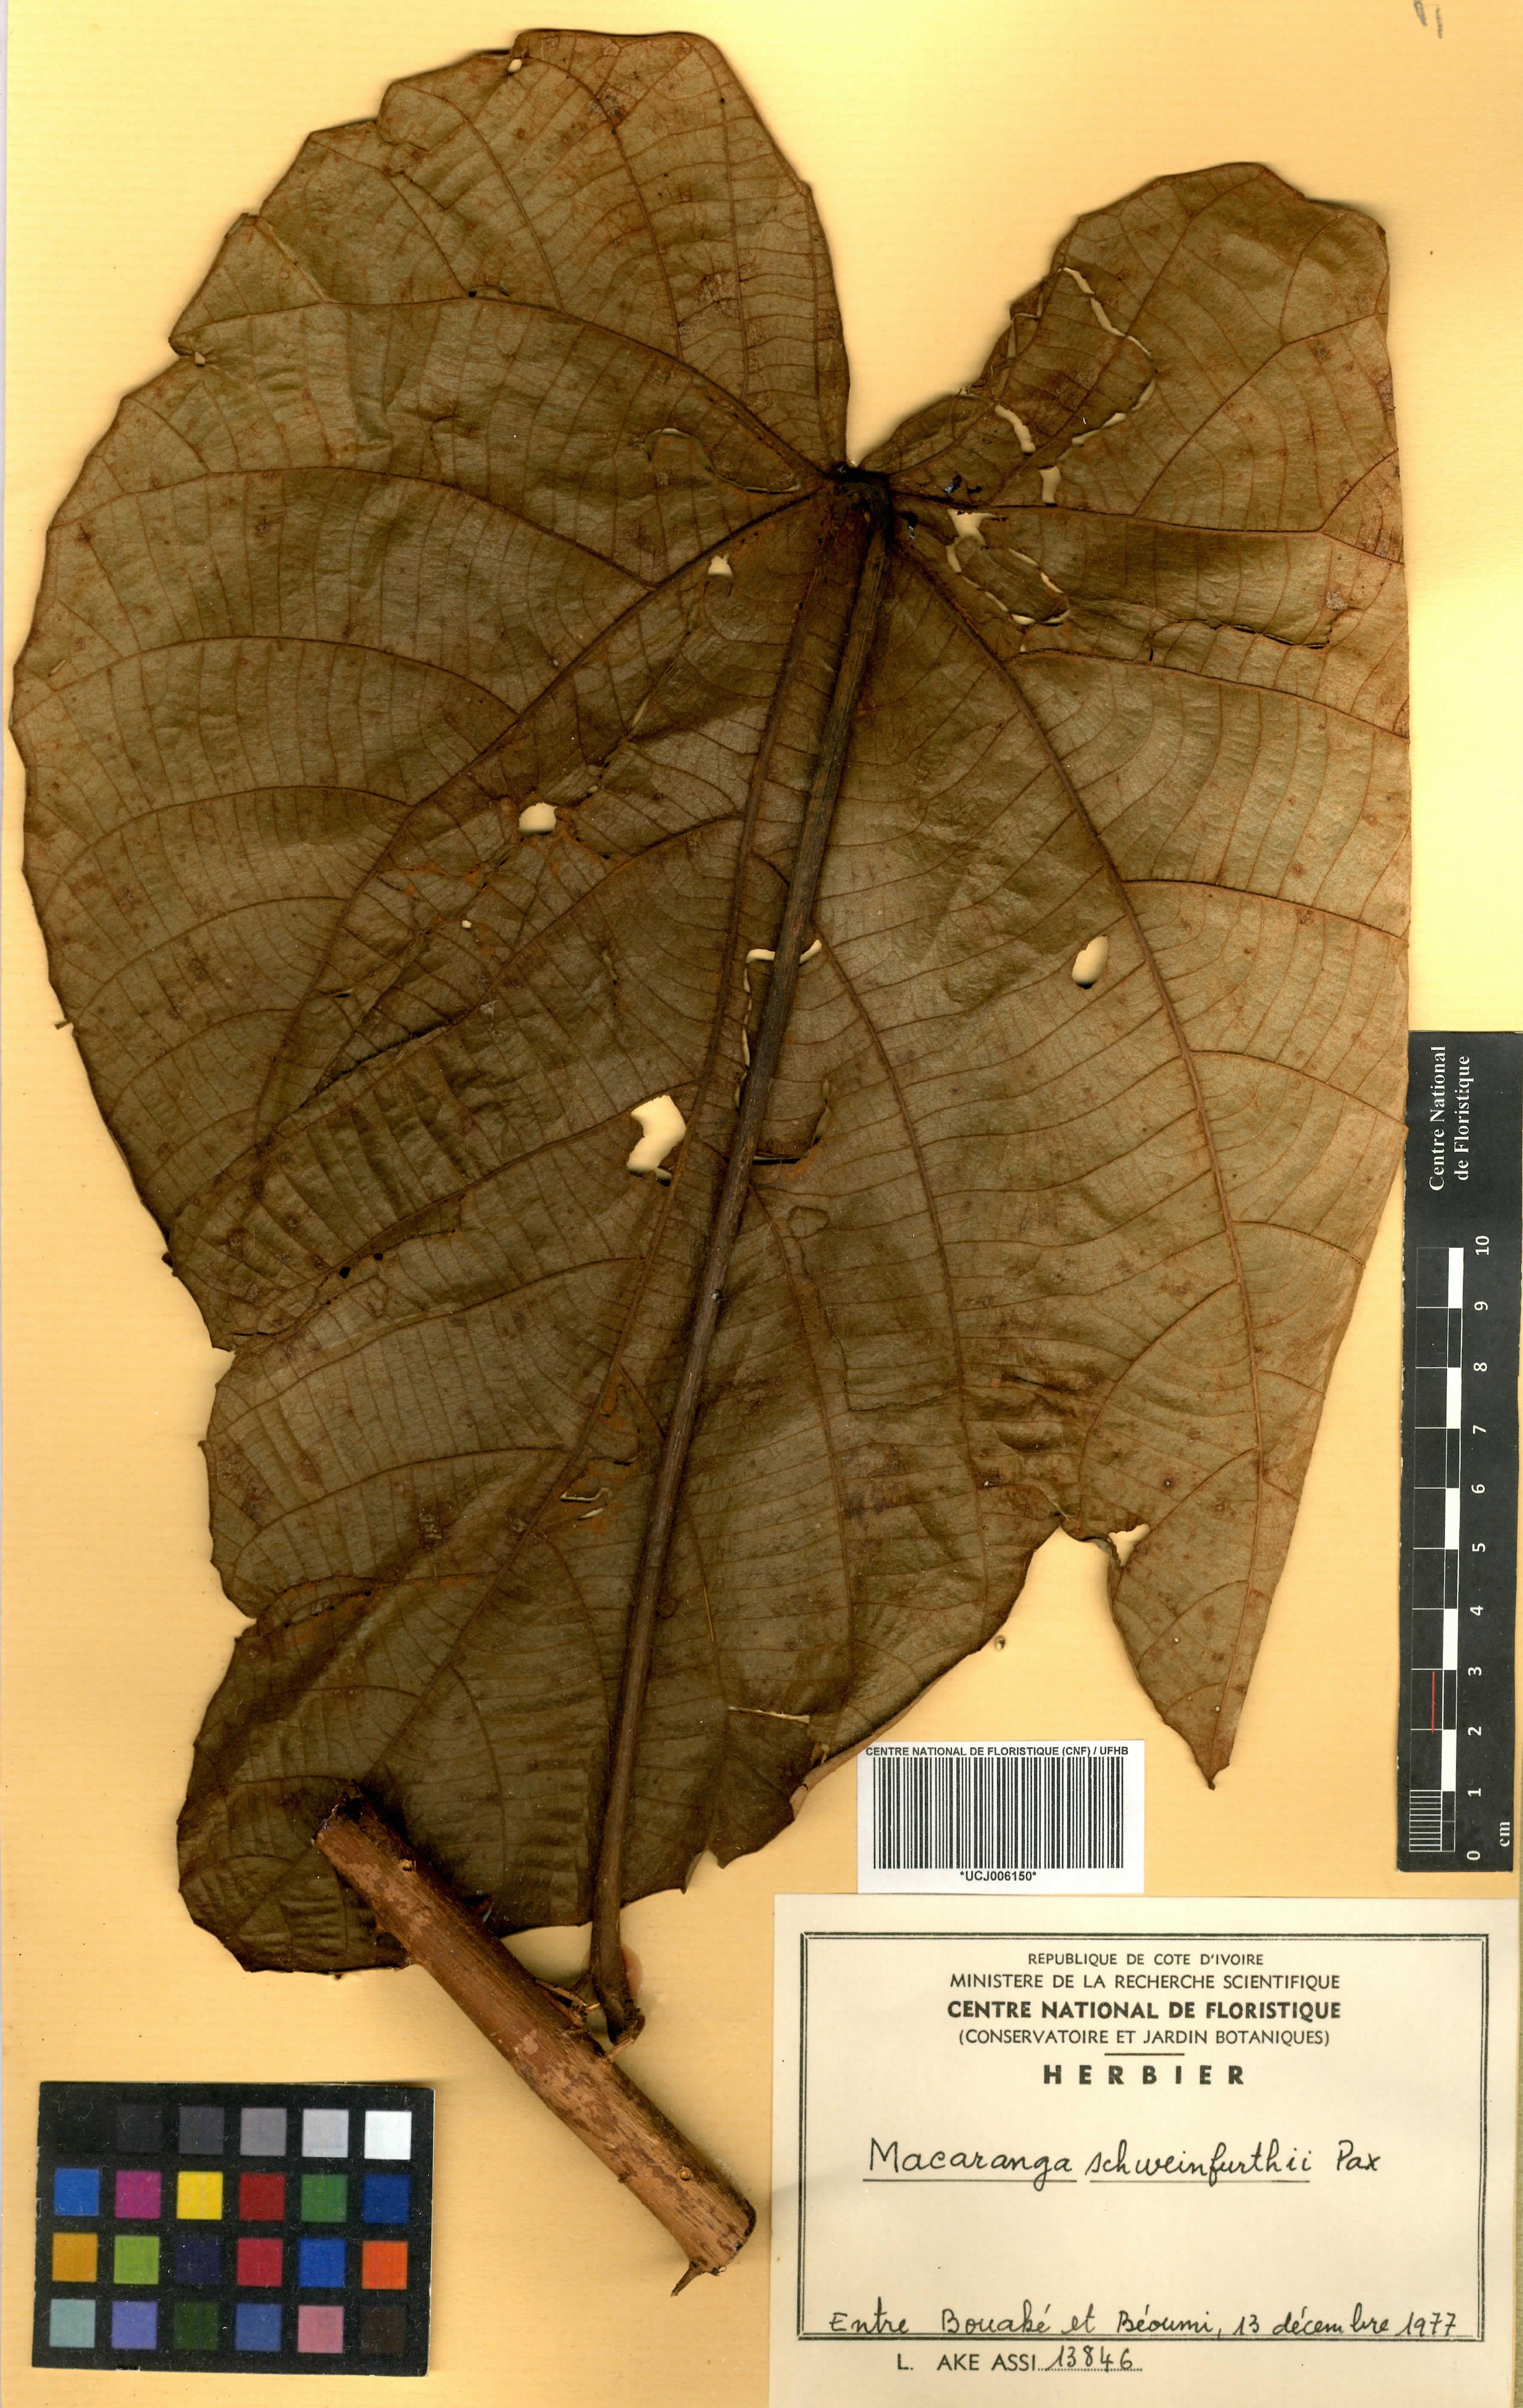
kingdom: Plantae
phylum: Tracheophyta
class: Magnoliopsida
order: Malpighiales
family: Euphorbiaceae
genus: Macaranga
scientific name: Macaranga schweinfurthii
